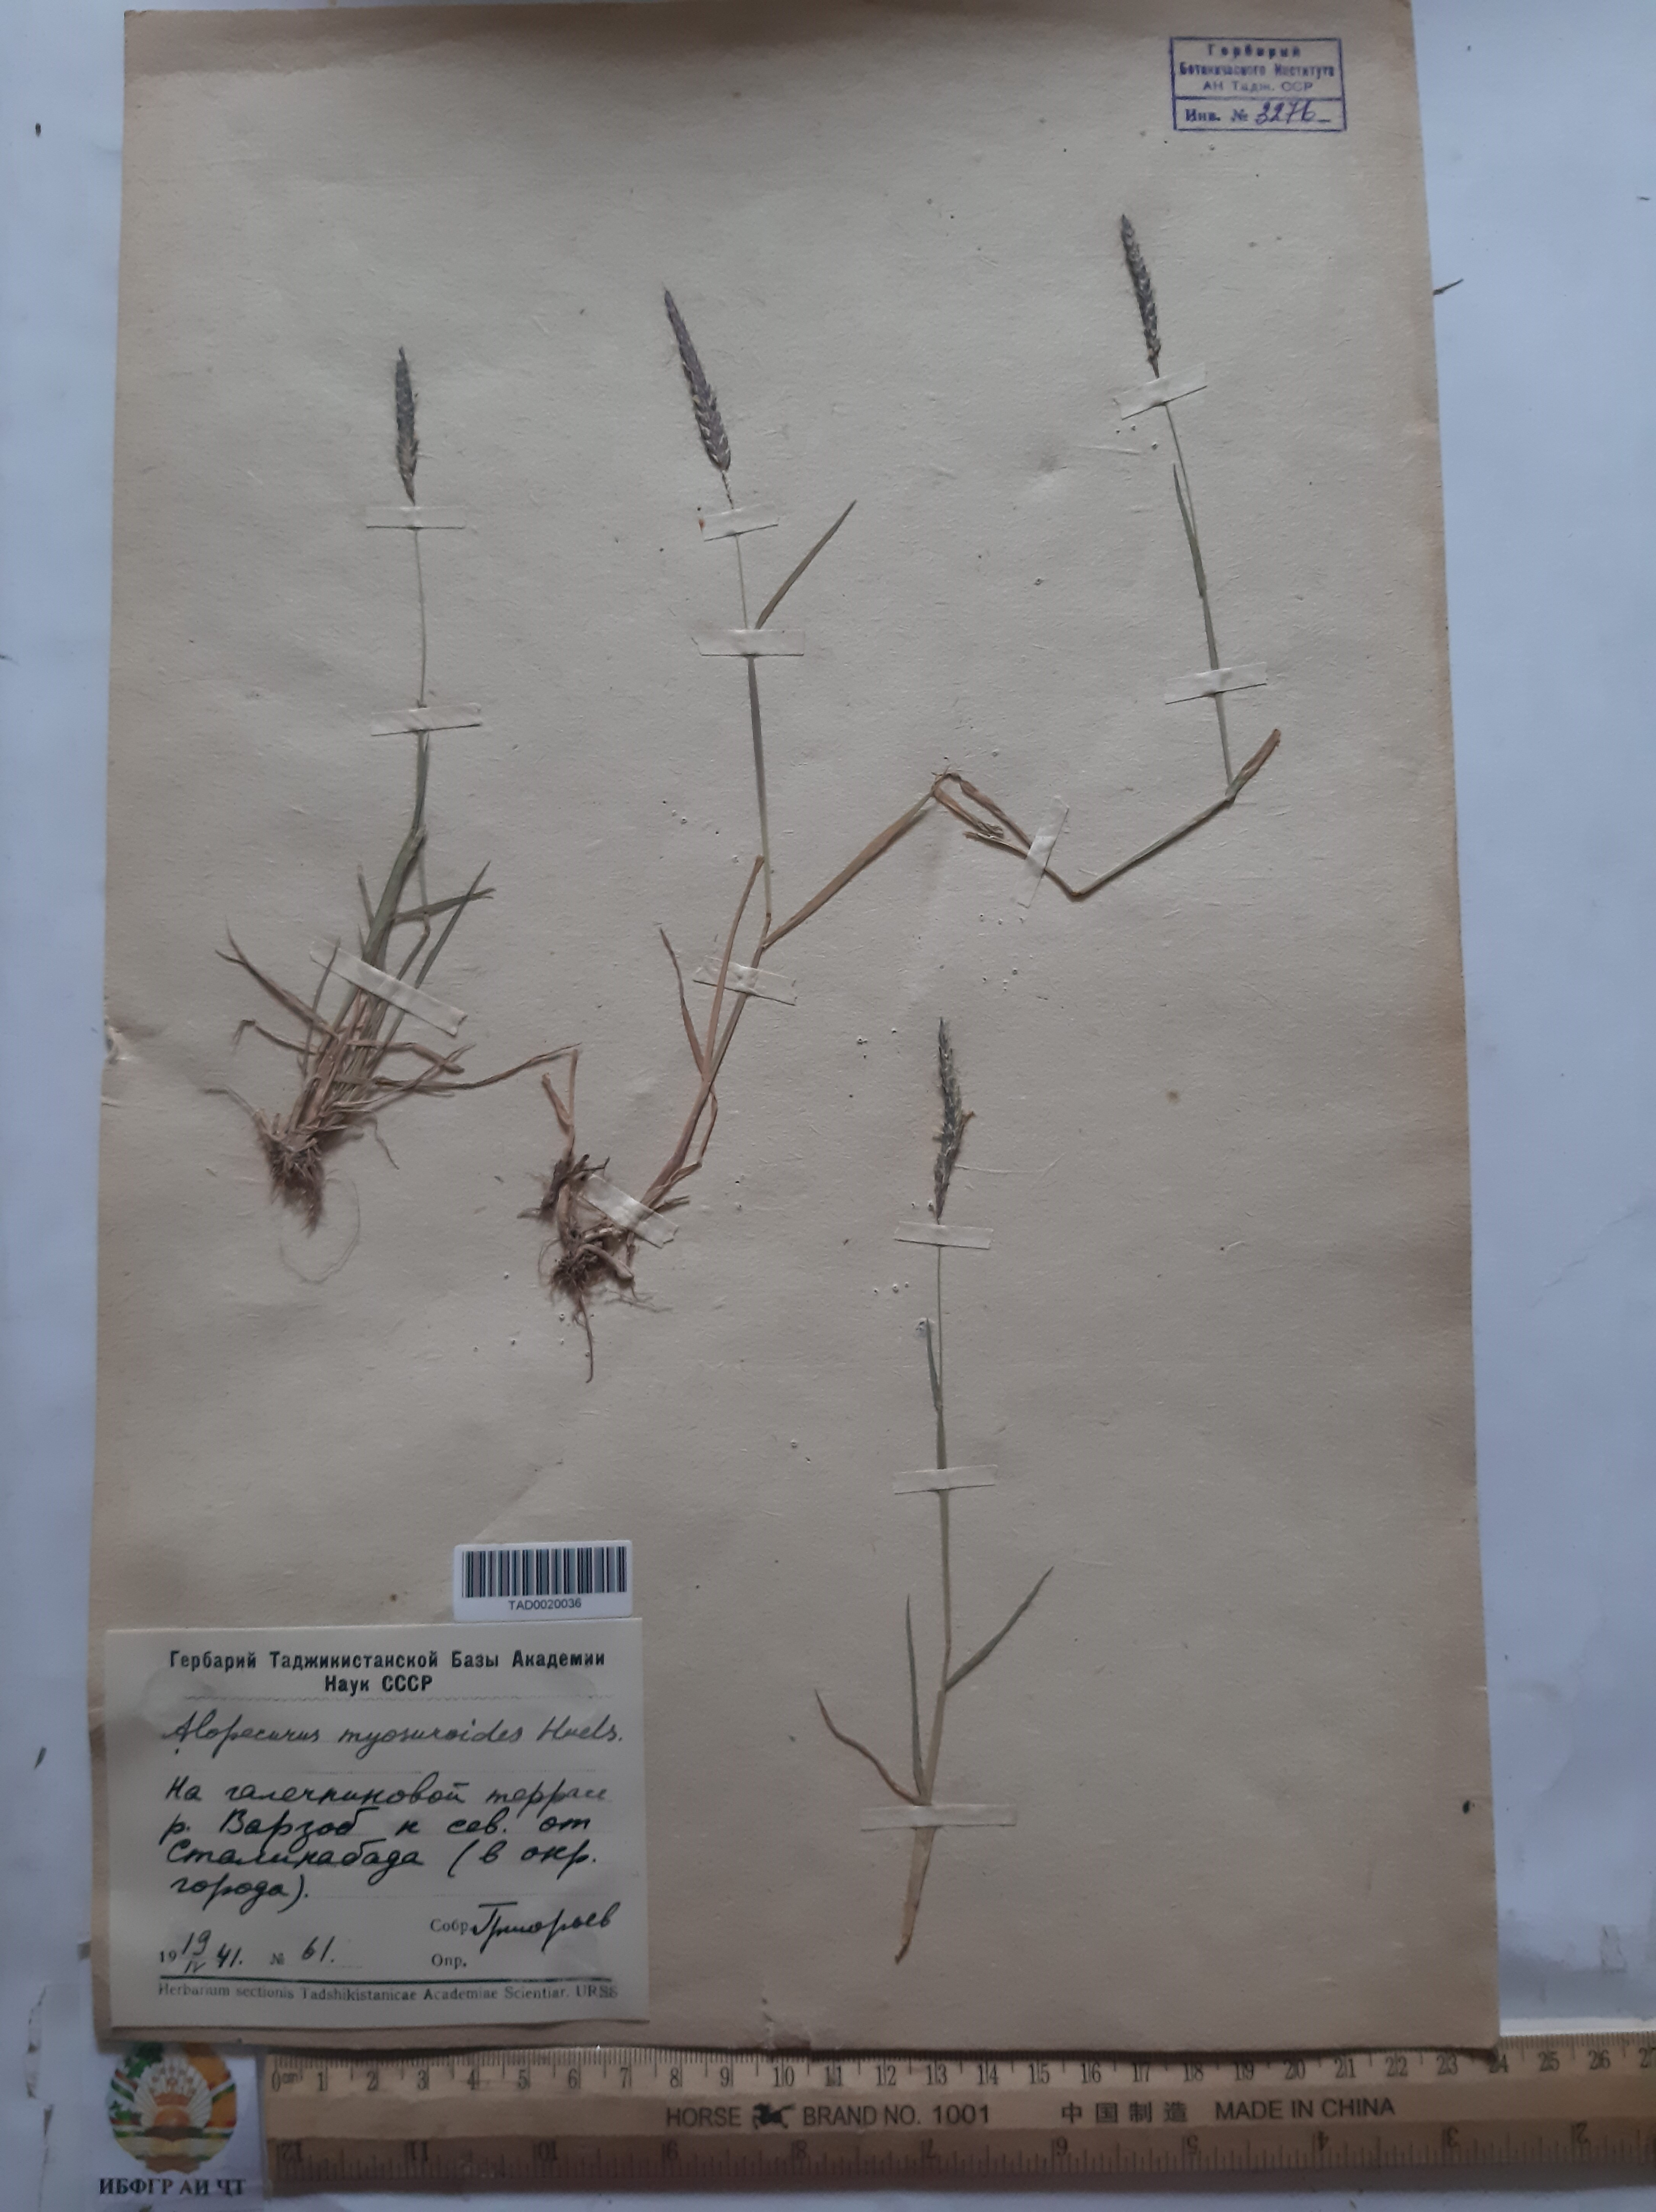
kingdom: Plantae
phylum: Tracheophyta
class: Liliopsida
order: Poales
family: Poaceae
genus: Alopecurus
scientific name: Alopecurus mucronatus
